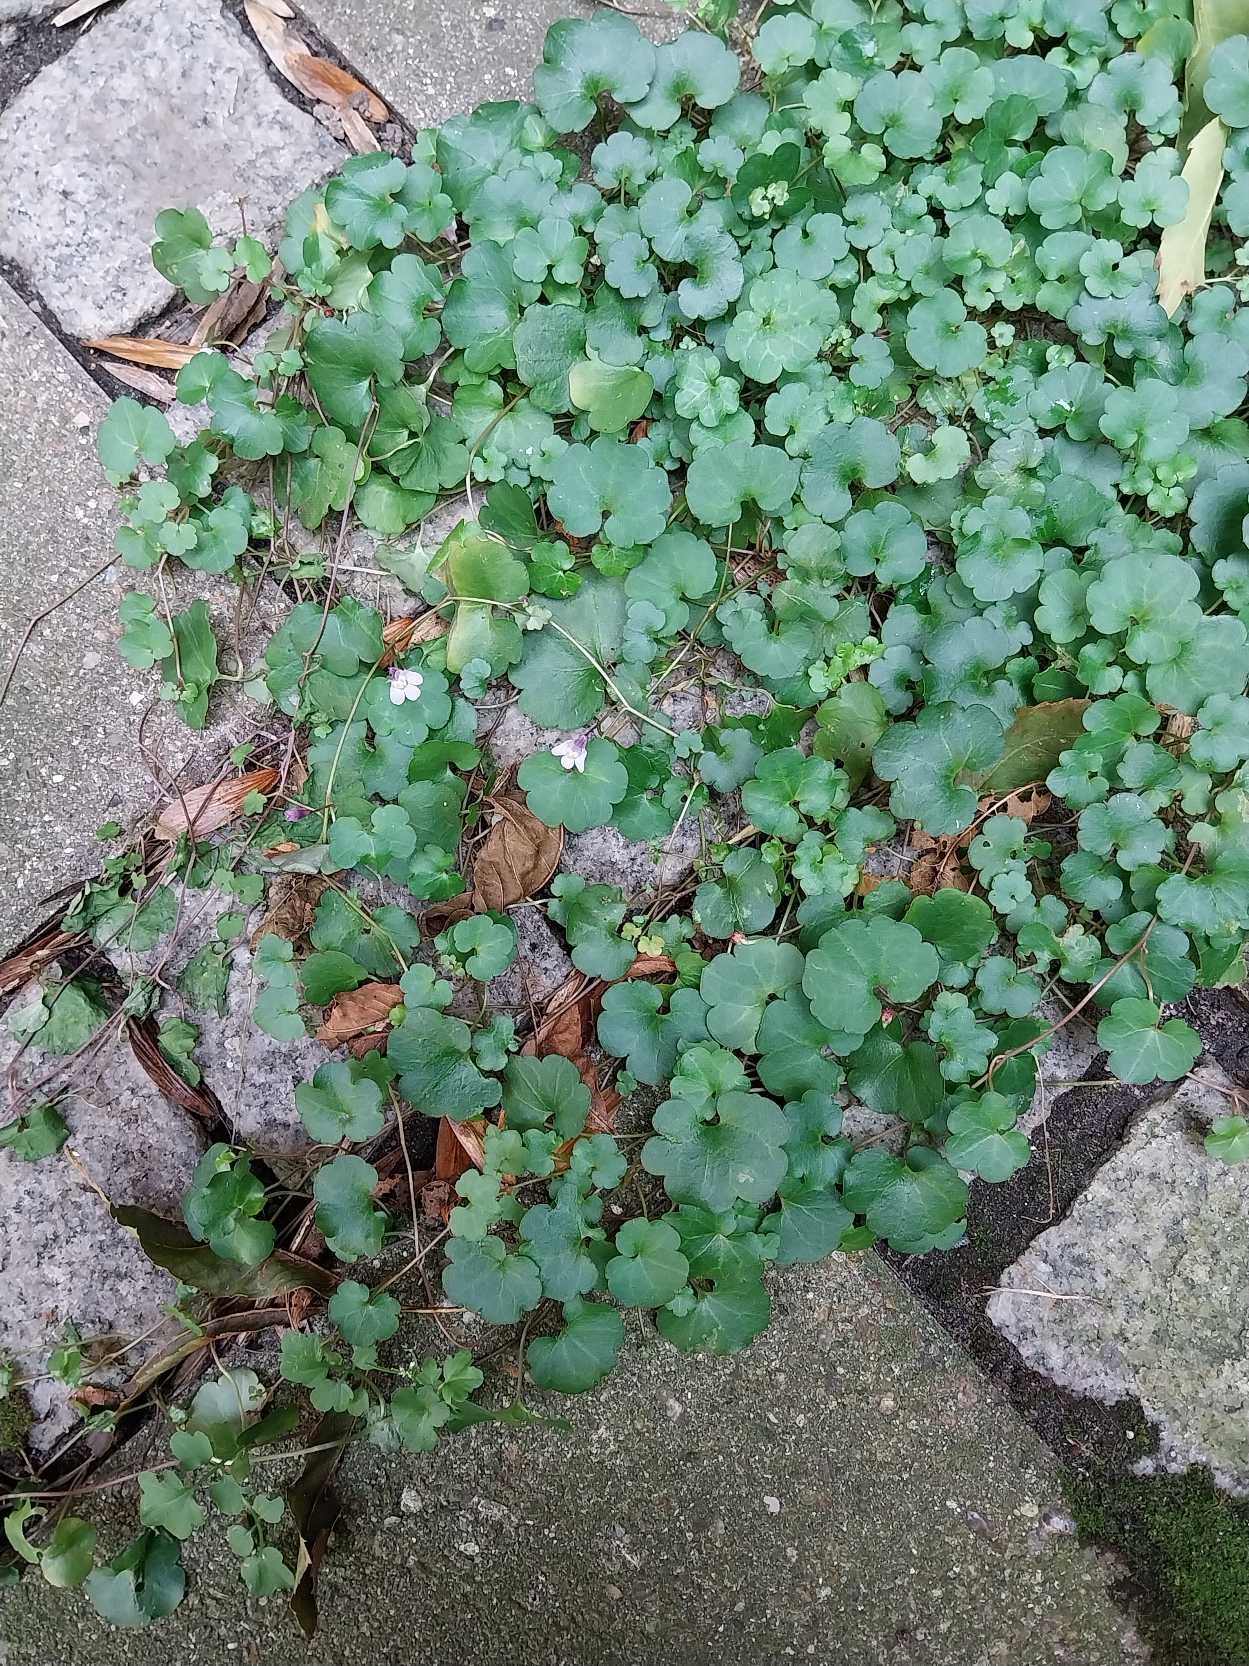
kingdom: Plantae
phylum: Tracheophyta
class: Magnoliopsida
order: Lamiales
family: Plantaginaceae
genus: Cymbalaria
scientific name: Cymbalaria muralis
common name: Vedbend-torskemund
